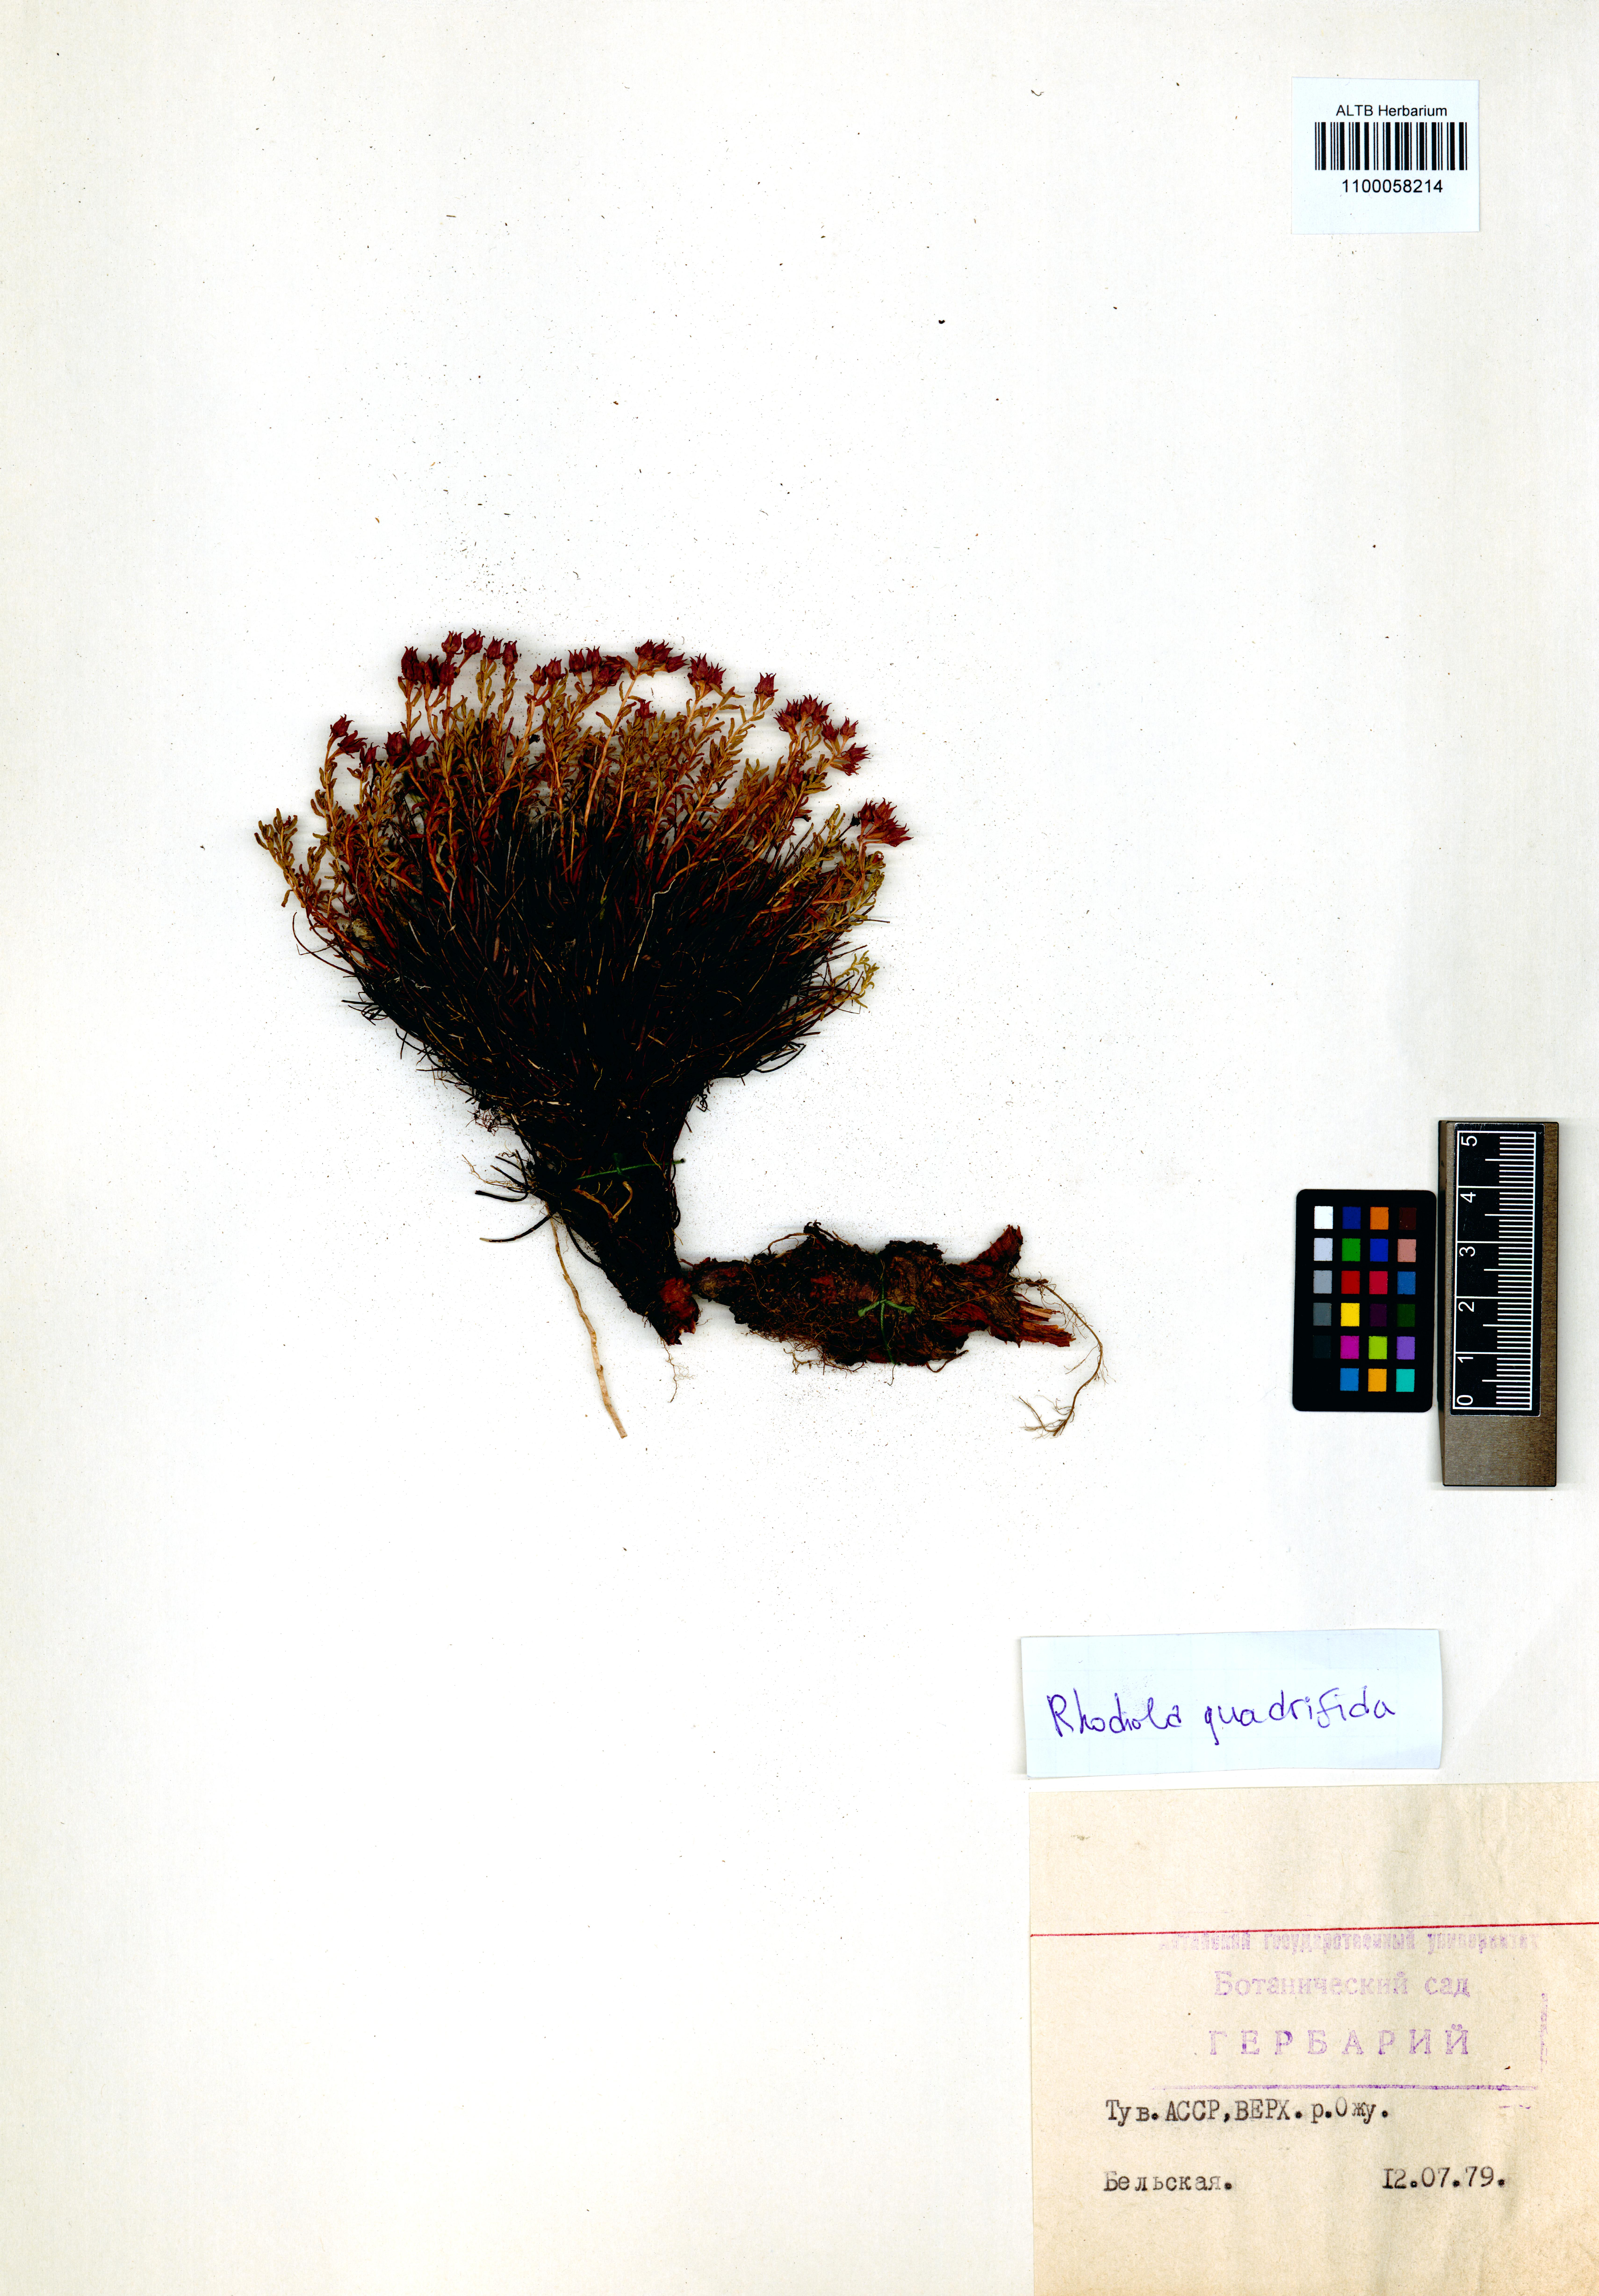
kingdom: Plantae
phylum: Tracheophyta
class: Magnoliopsida
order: Saxifragales
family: Crassulaceae
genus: Rhodiola
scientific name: Rhodiola quadrifida
